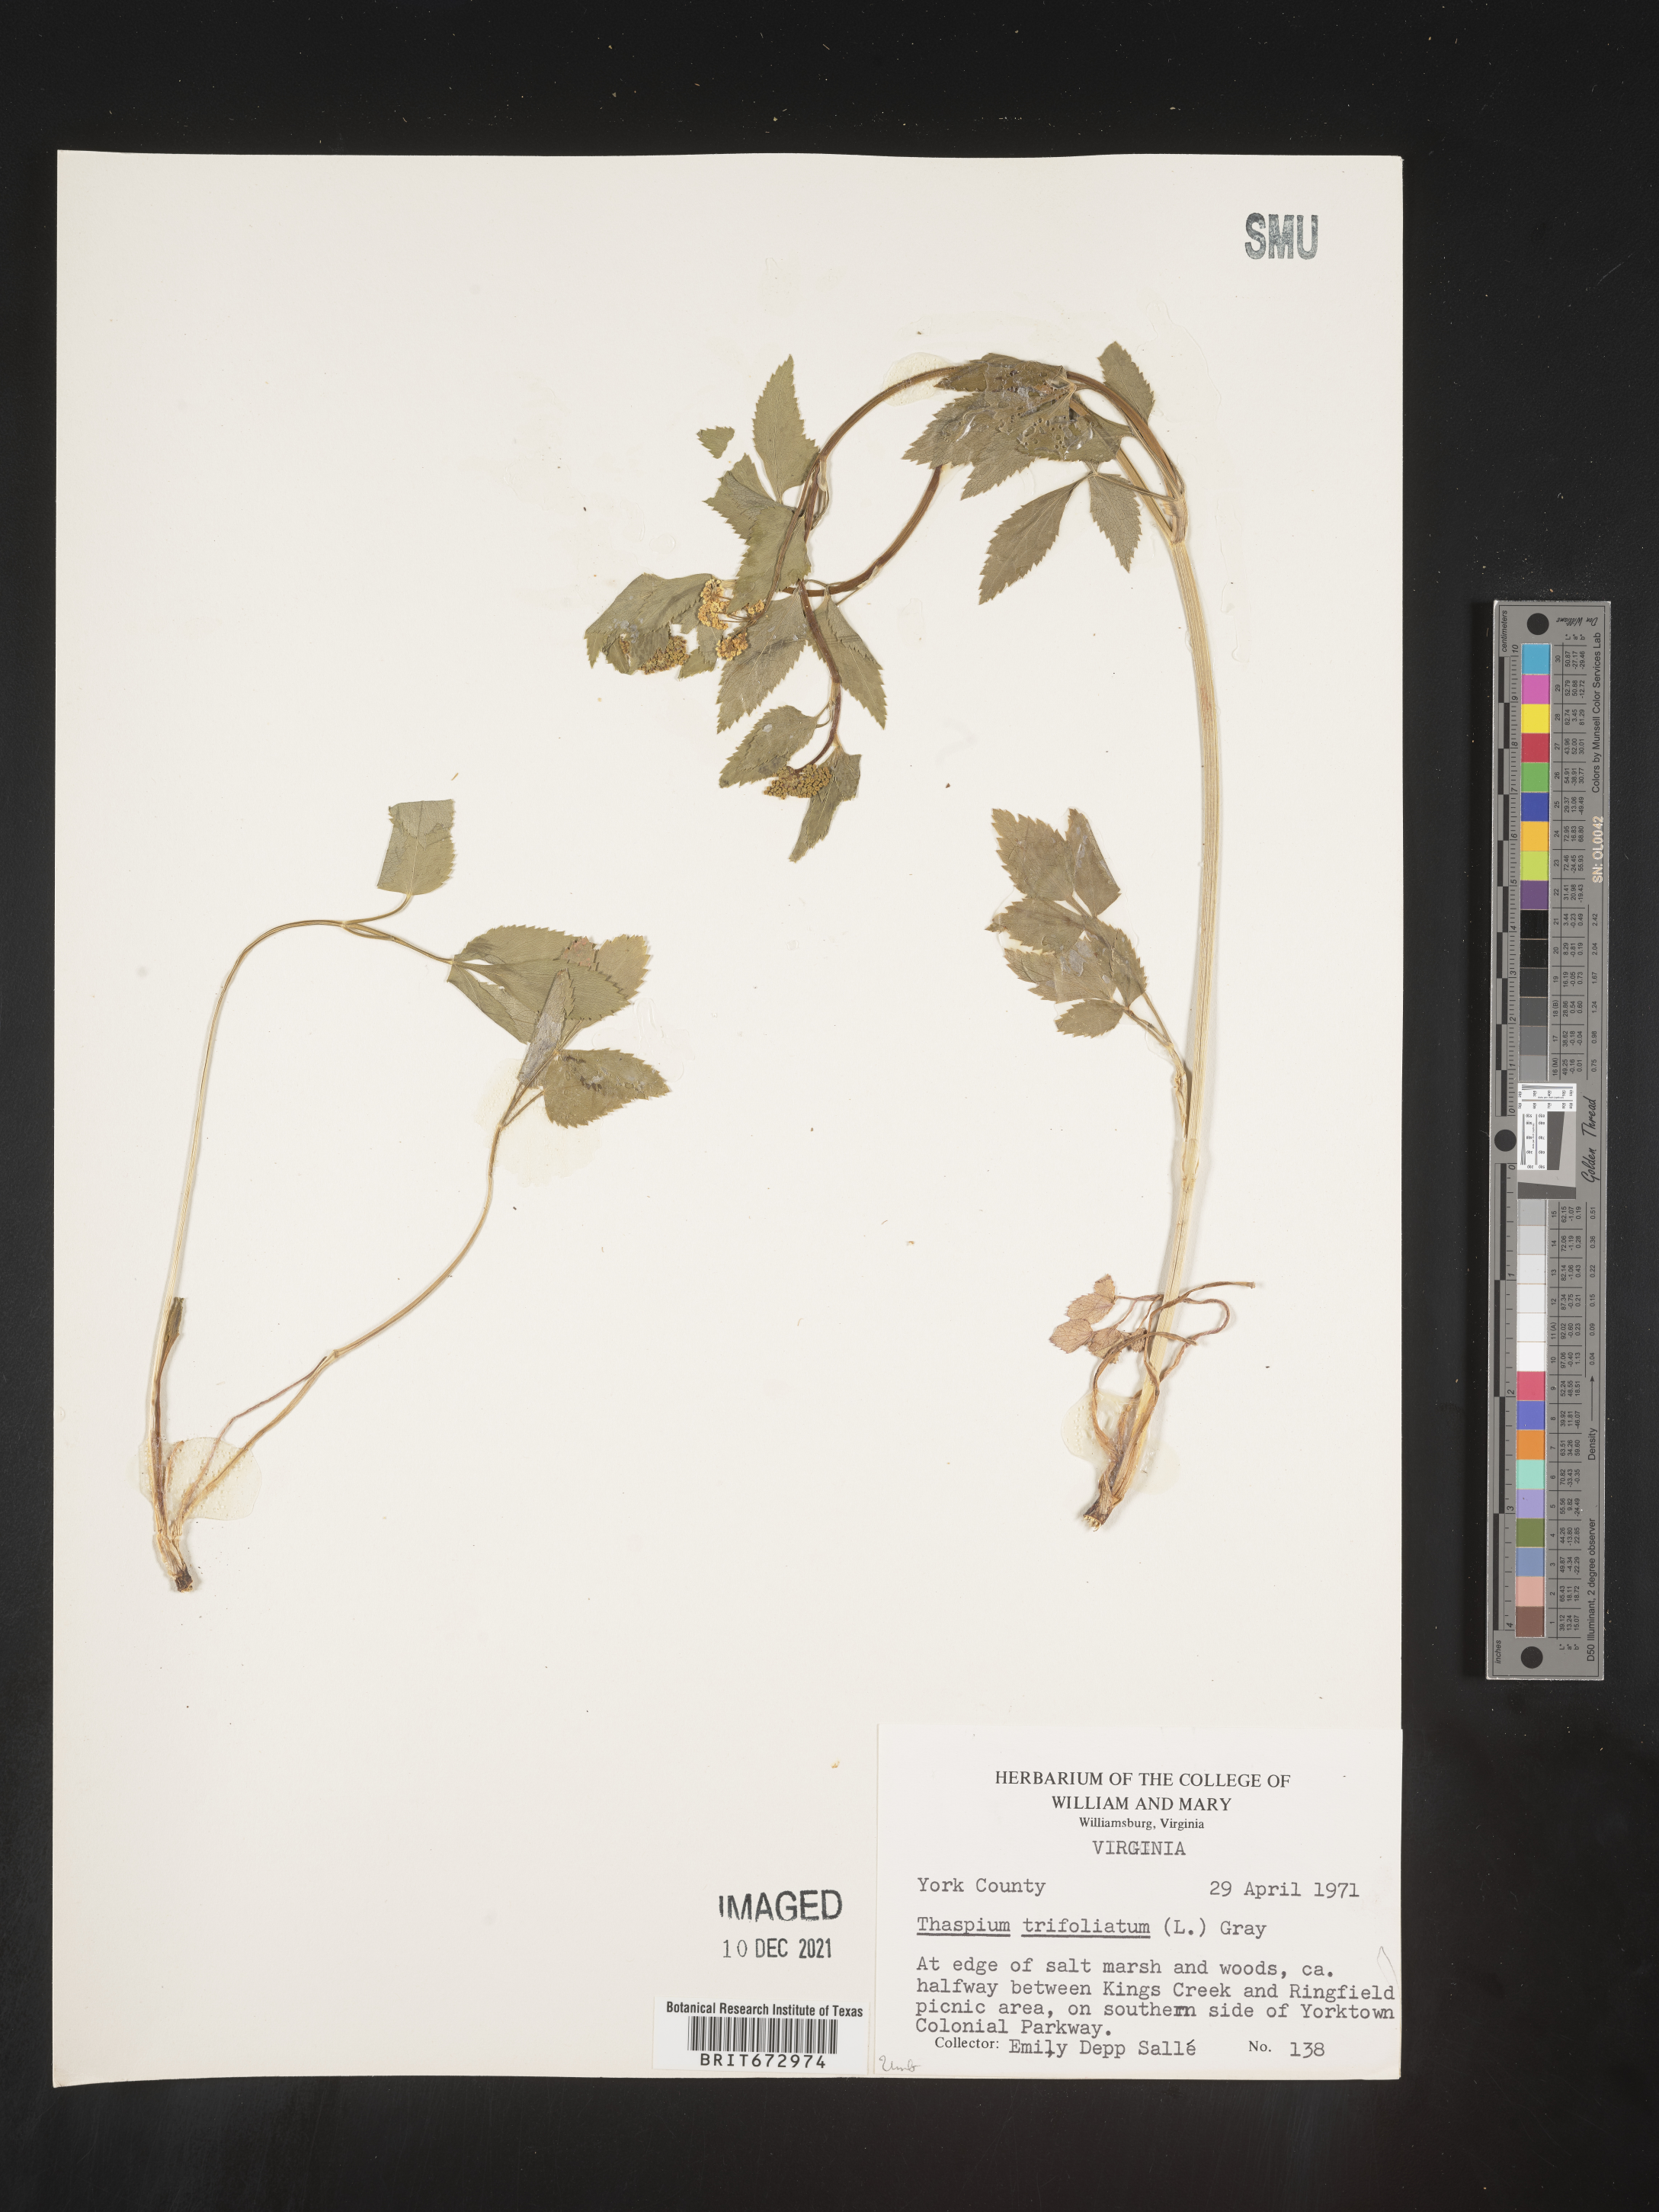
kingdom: Plantae
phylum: Tracheophyta
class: Magnoliopsida
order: Apiales
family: Apiaceae
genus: Thaspium
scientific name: Thaspium
